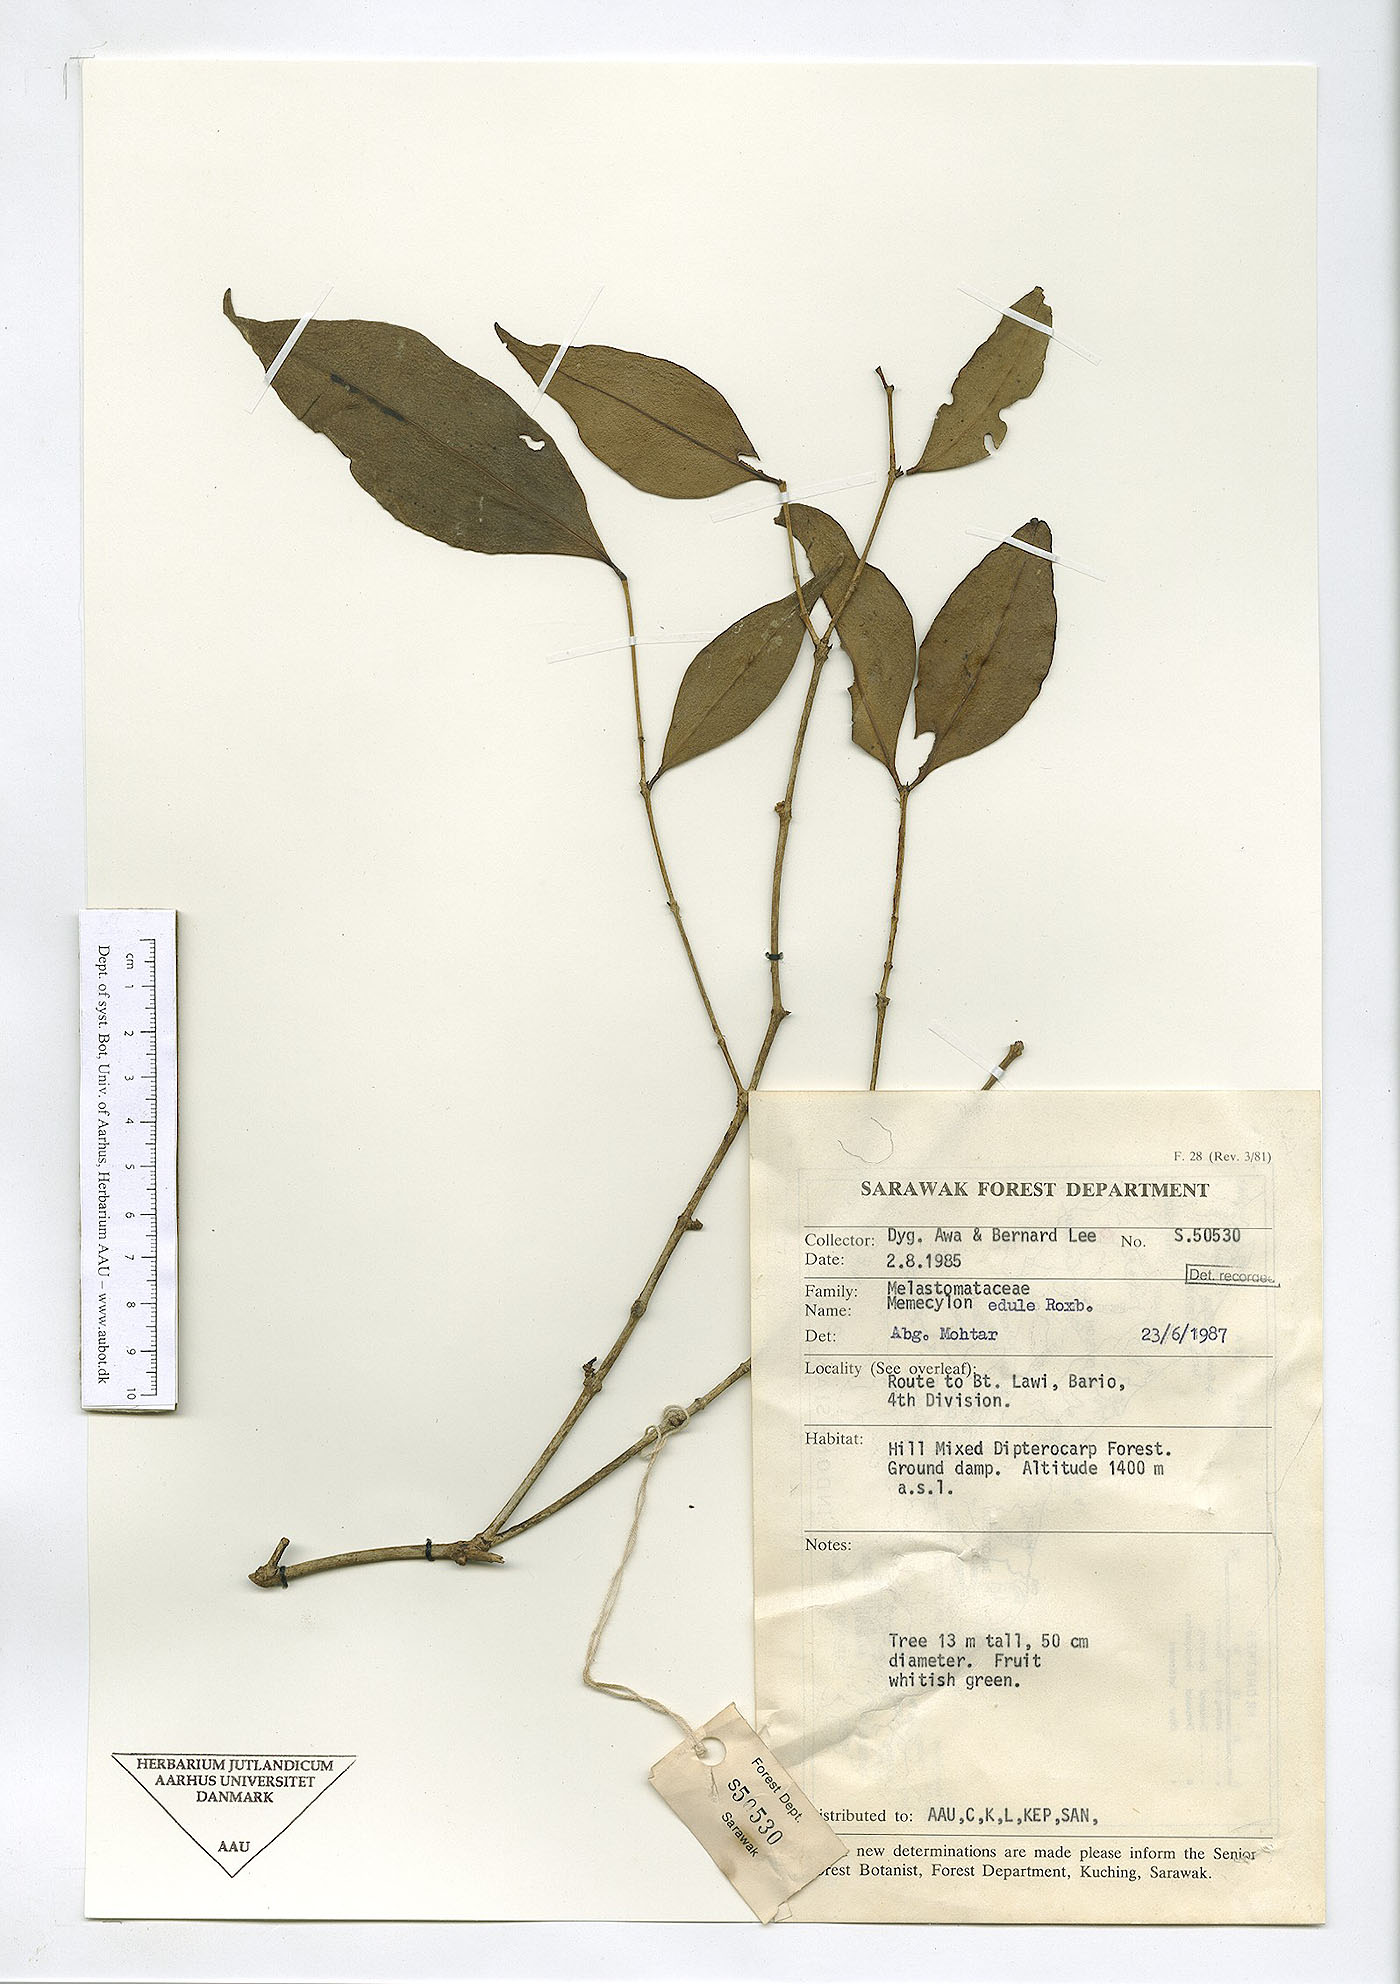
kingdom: Plantae
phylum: Tracheophyta
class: Magnoliopsida
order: Myrtales
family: Melastomataceae
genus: Memecylon
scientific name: Memecylon
